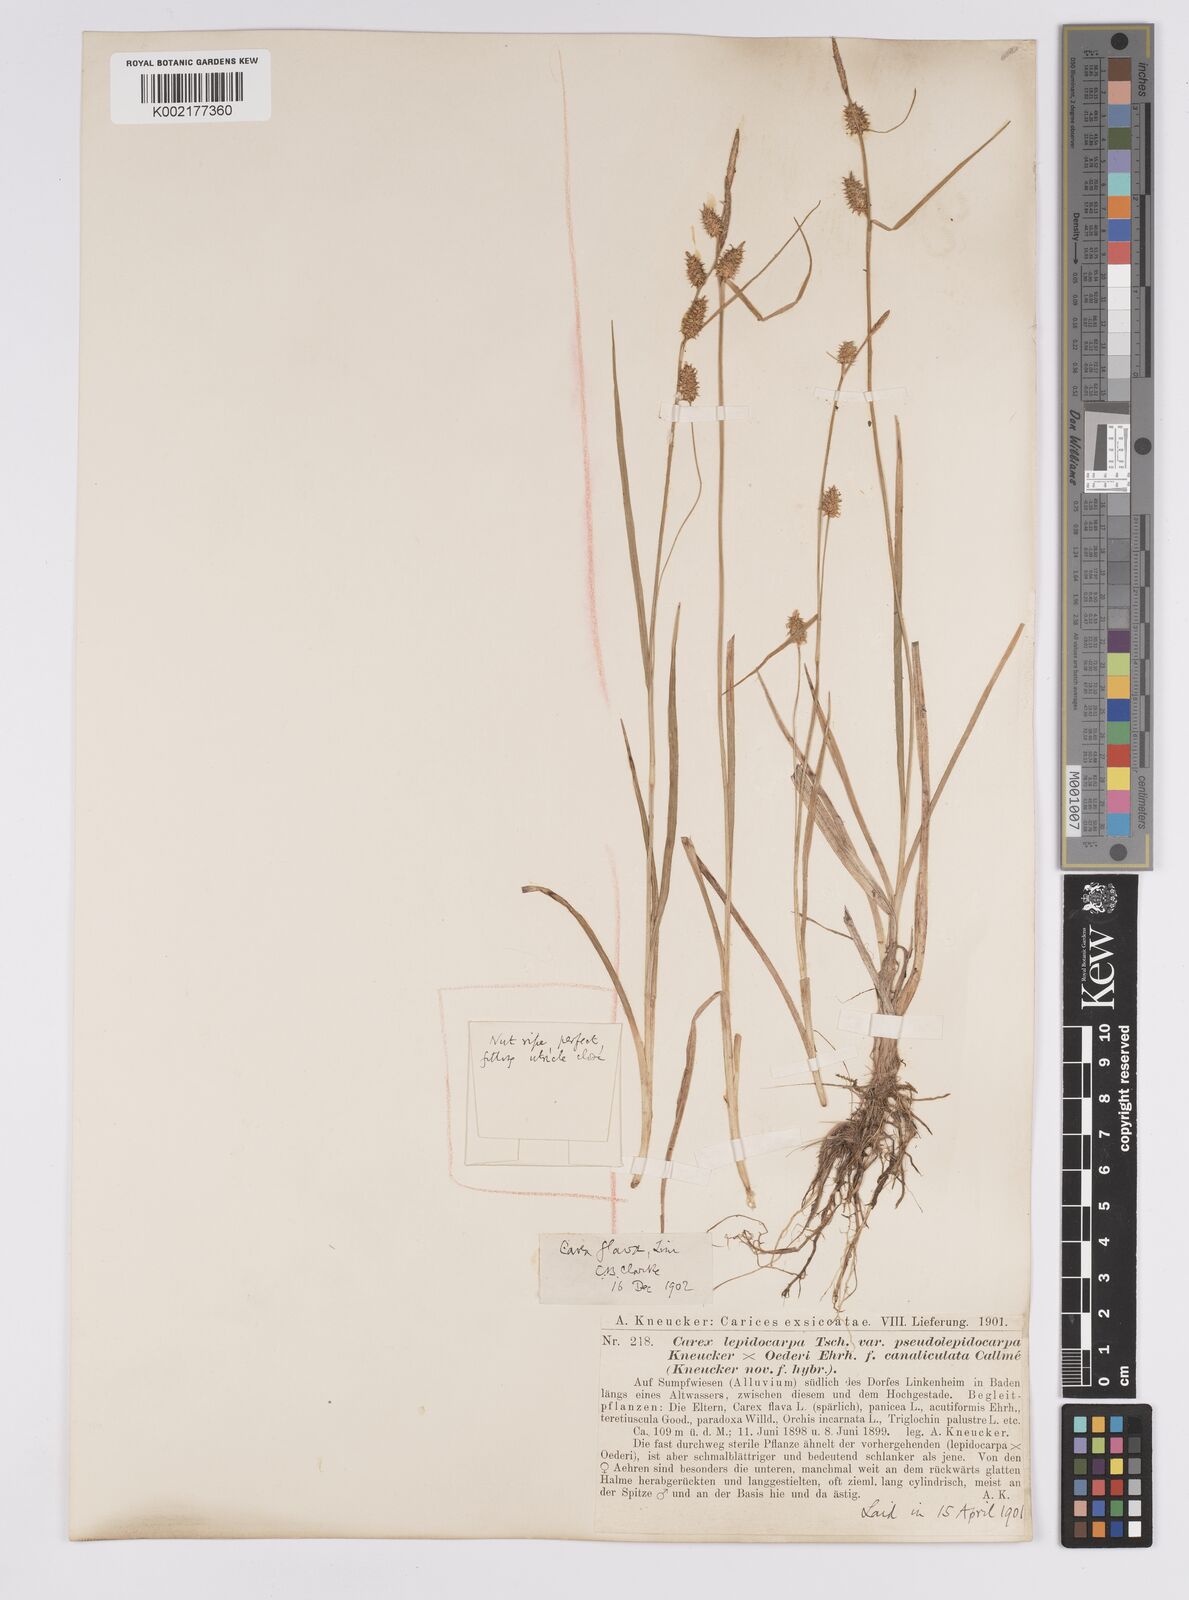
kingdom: Plantae
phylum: Tracheophyta
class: Liliopsida
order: Poales
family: Cyperaceae
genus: Carex
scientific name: Carex hostiana
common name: Tawny sedge
